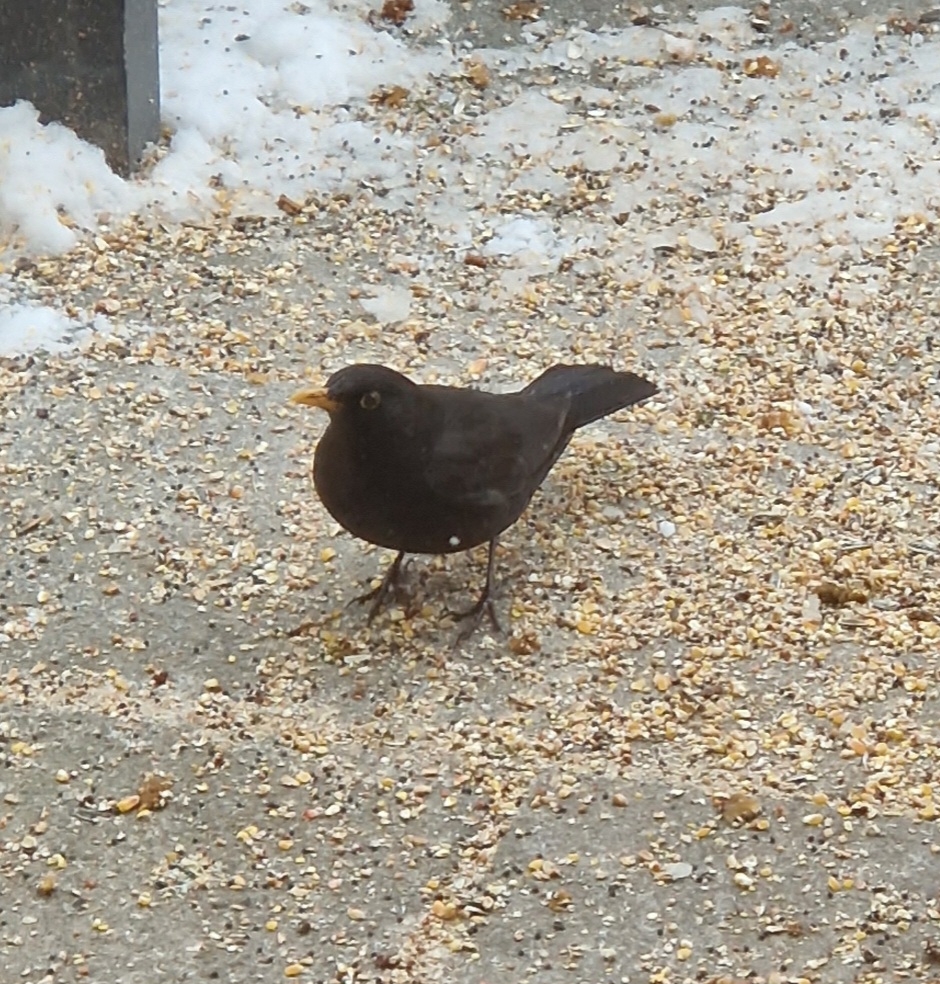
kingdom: Animalia
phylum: Chordata
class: Aves
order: Passeriformes
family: Turdidae
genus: Turdus
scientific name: Turdus merula
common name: Solsort
